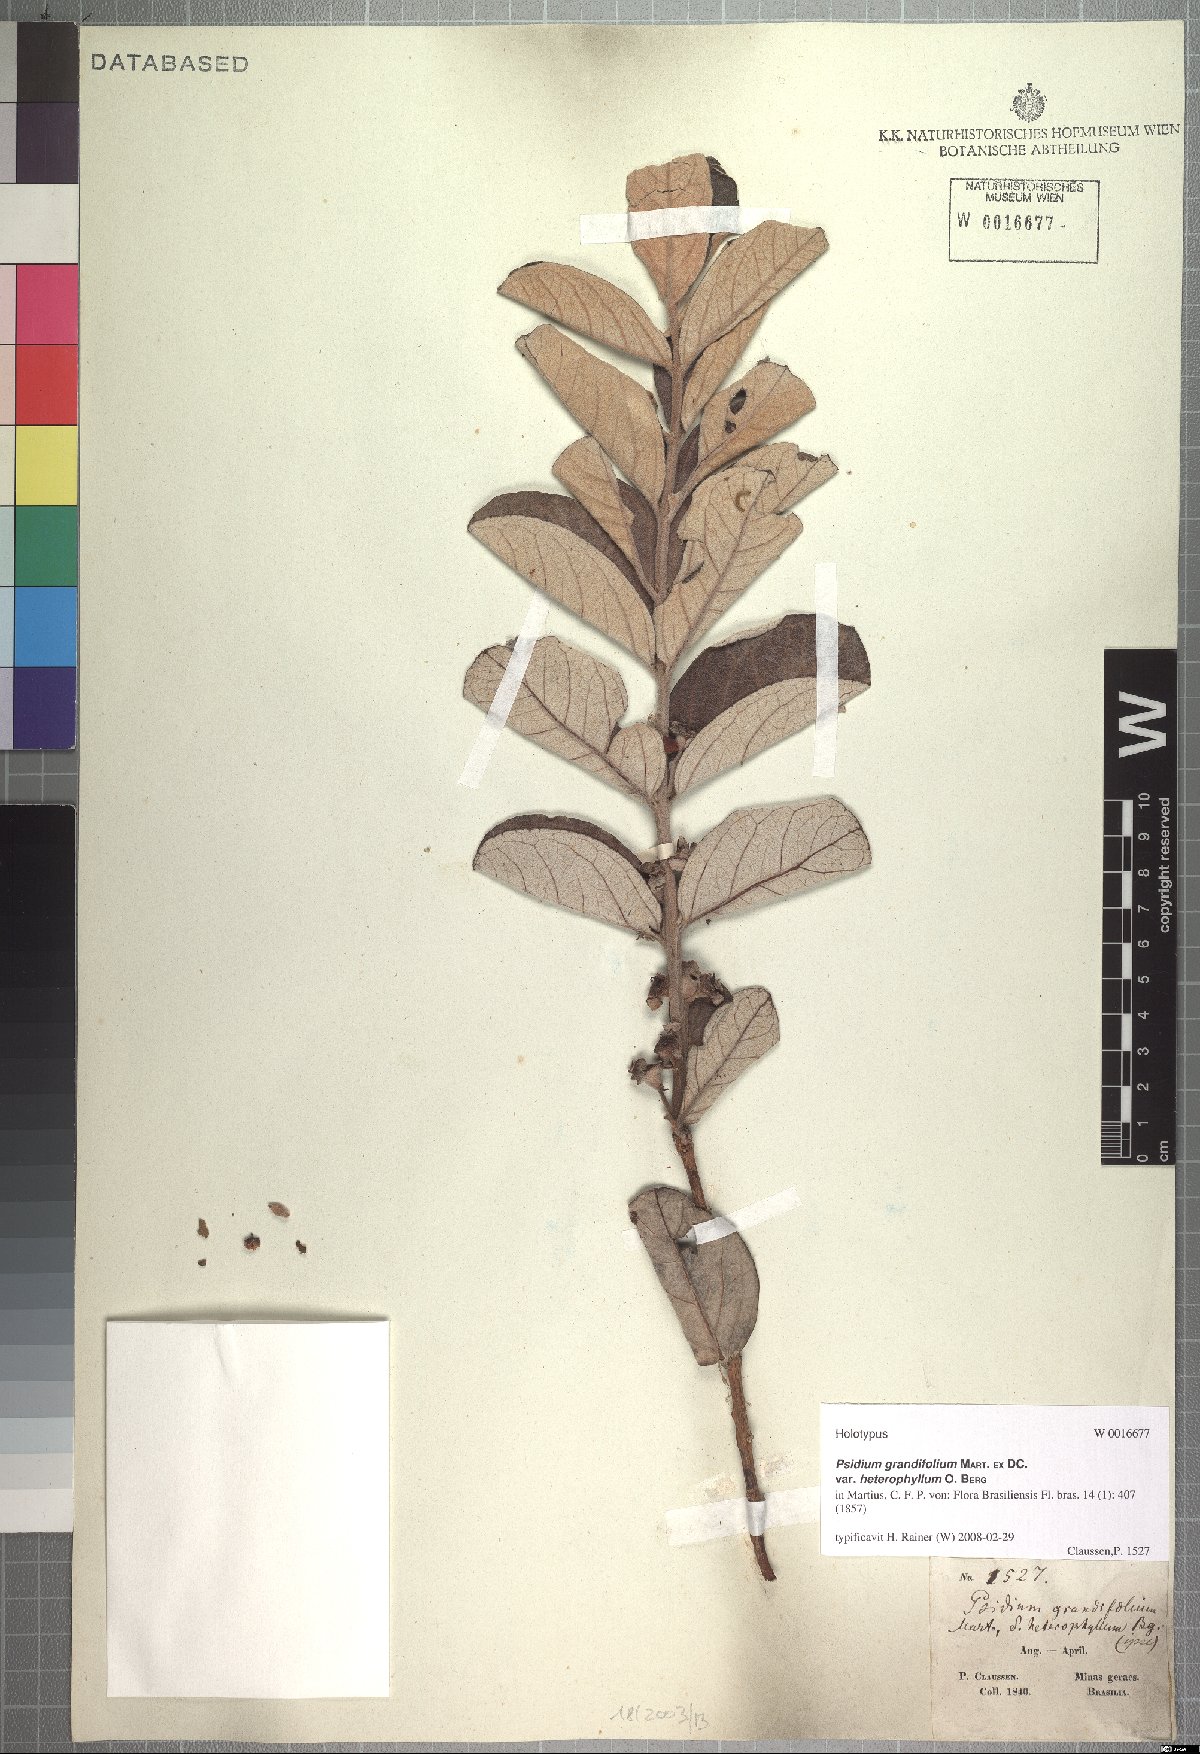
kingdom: Plantae
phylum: Tracheophyta
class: Magnoliopsida
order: Myrtales
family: Myrtaceae
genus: Psidium
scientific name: Psidium grandifolium
